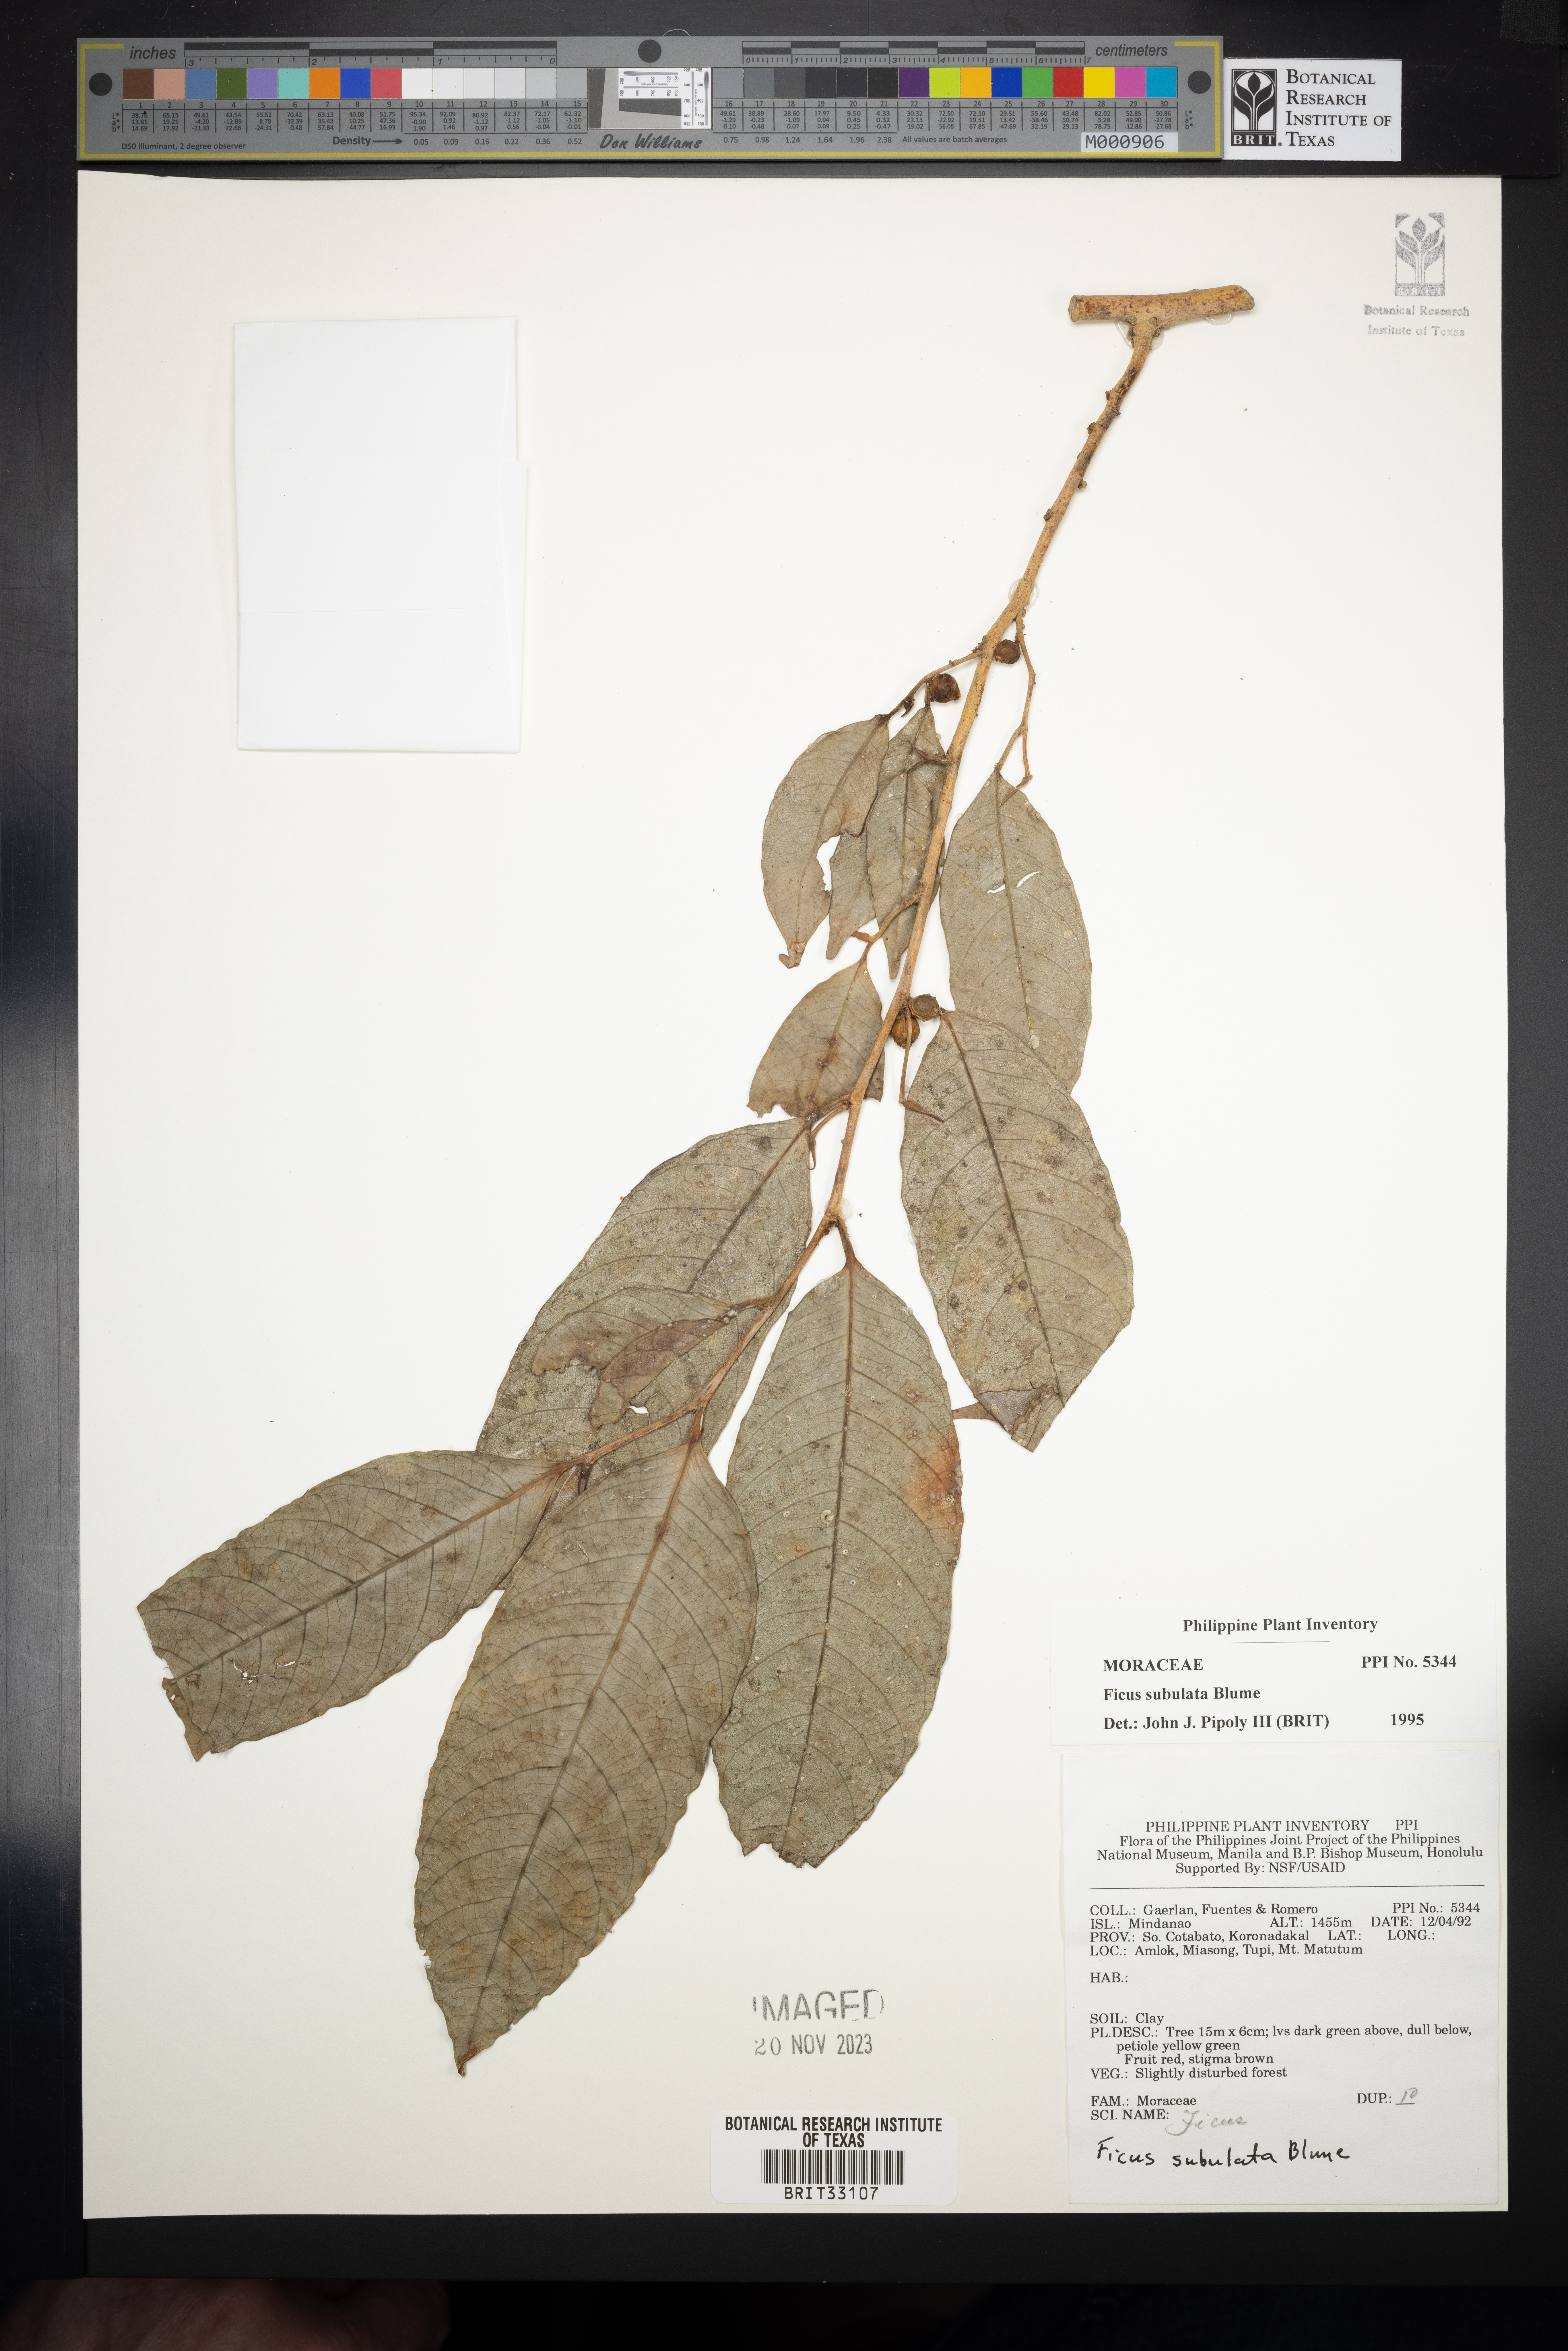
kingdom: Plantae
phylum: Tracheophyta
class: Magnoliopsida
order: Rosales
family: Moraceae
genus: Ficus
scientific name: Ficus subulata
